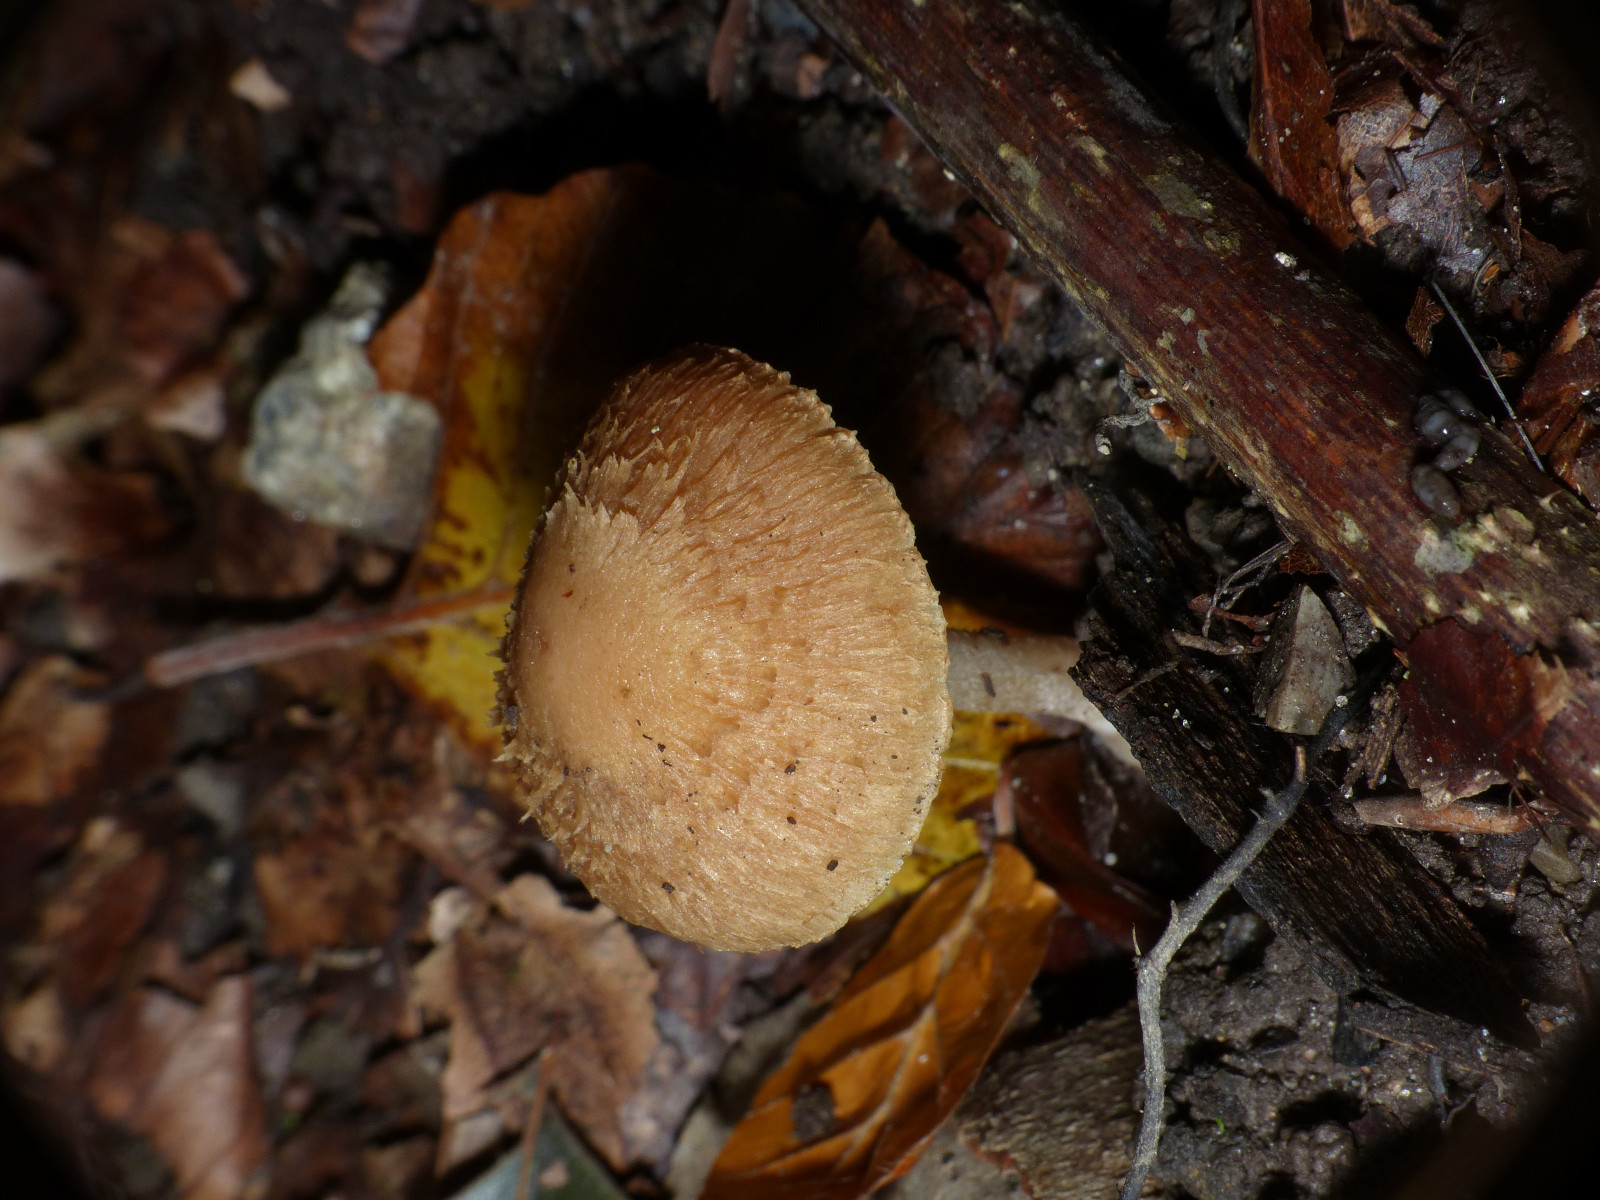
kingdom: Fungi
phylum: Basidiomycota
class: Agaricomycetes
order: Agaricales
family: Inocybaceae
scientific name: Inocybaceae
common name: trævlhatfamilien
